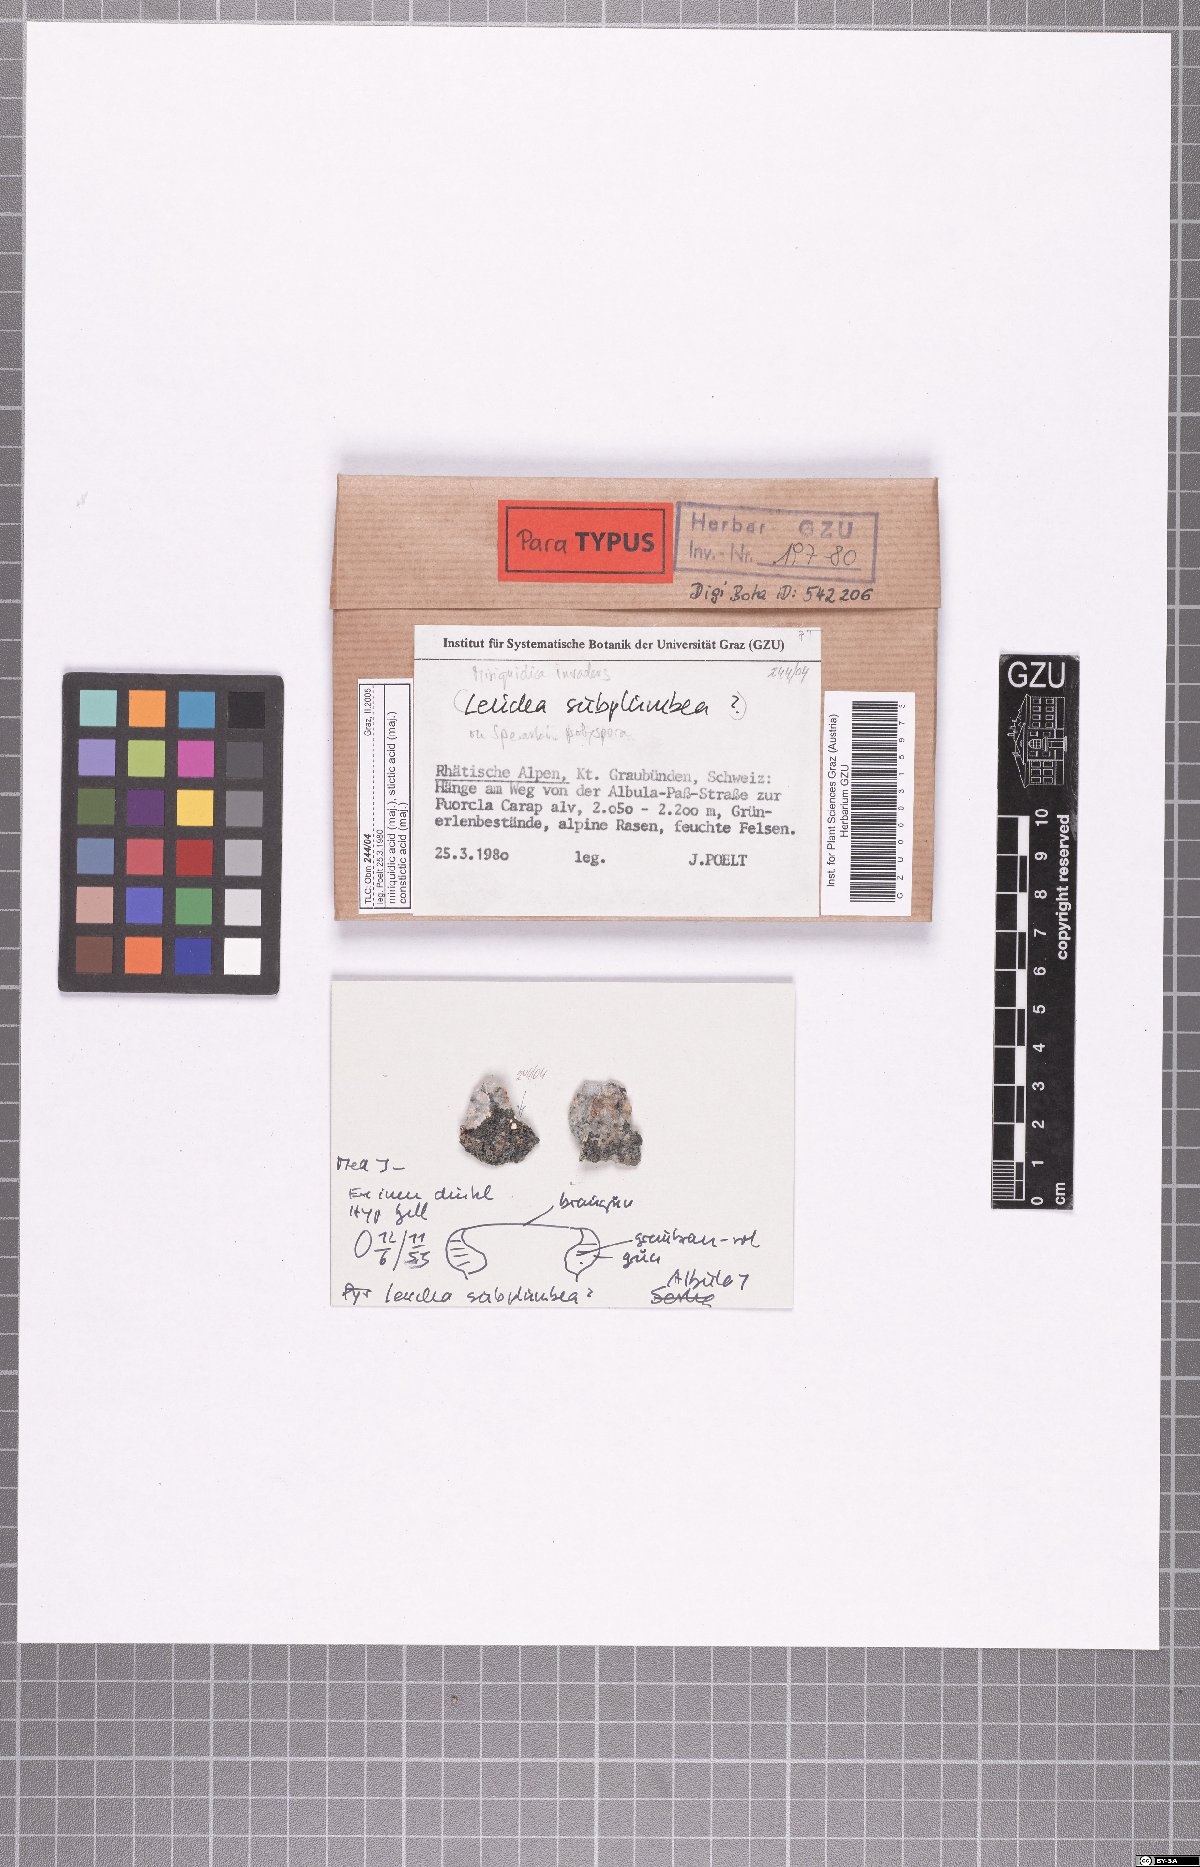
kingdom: Fungi
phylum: Ascomycota
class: Lecanoromycetes
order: Lecanorales
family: Lecanoraceae
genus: Miriquidica
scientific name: Miriquidica invadens
